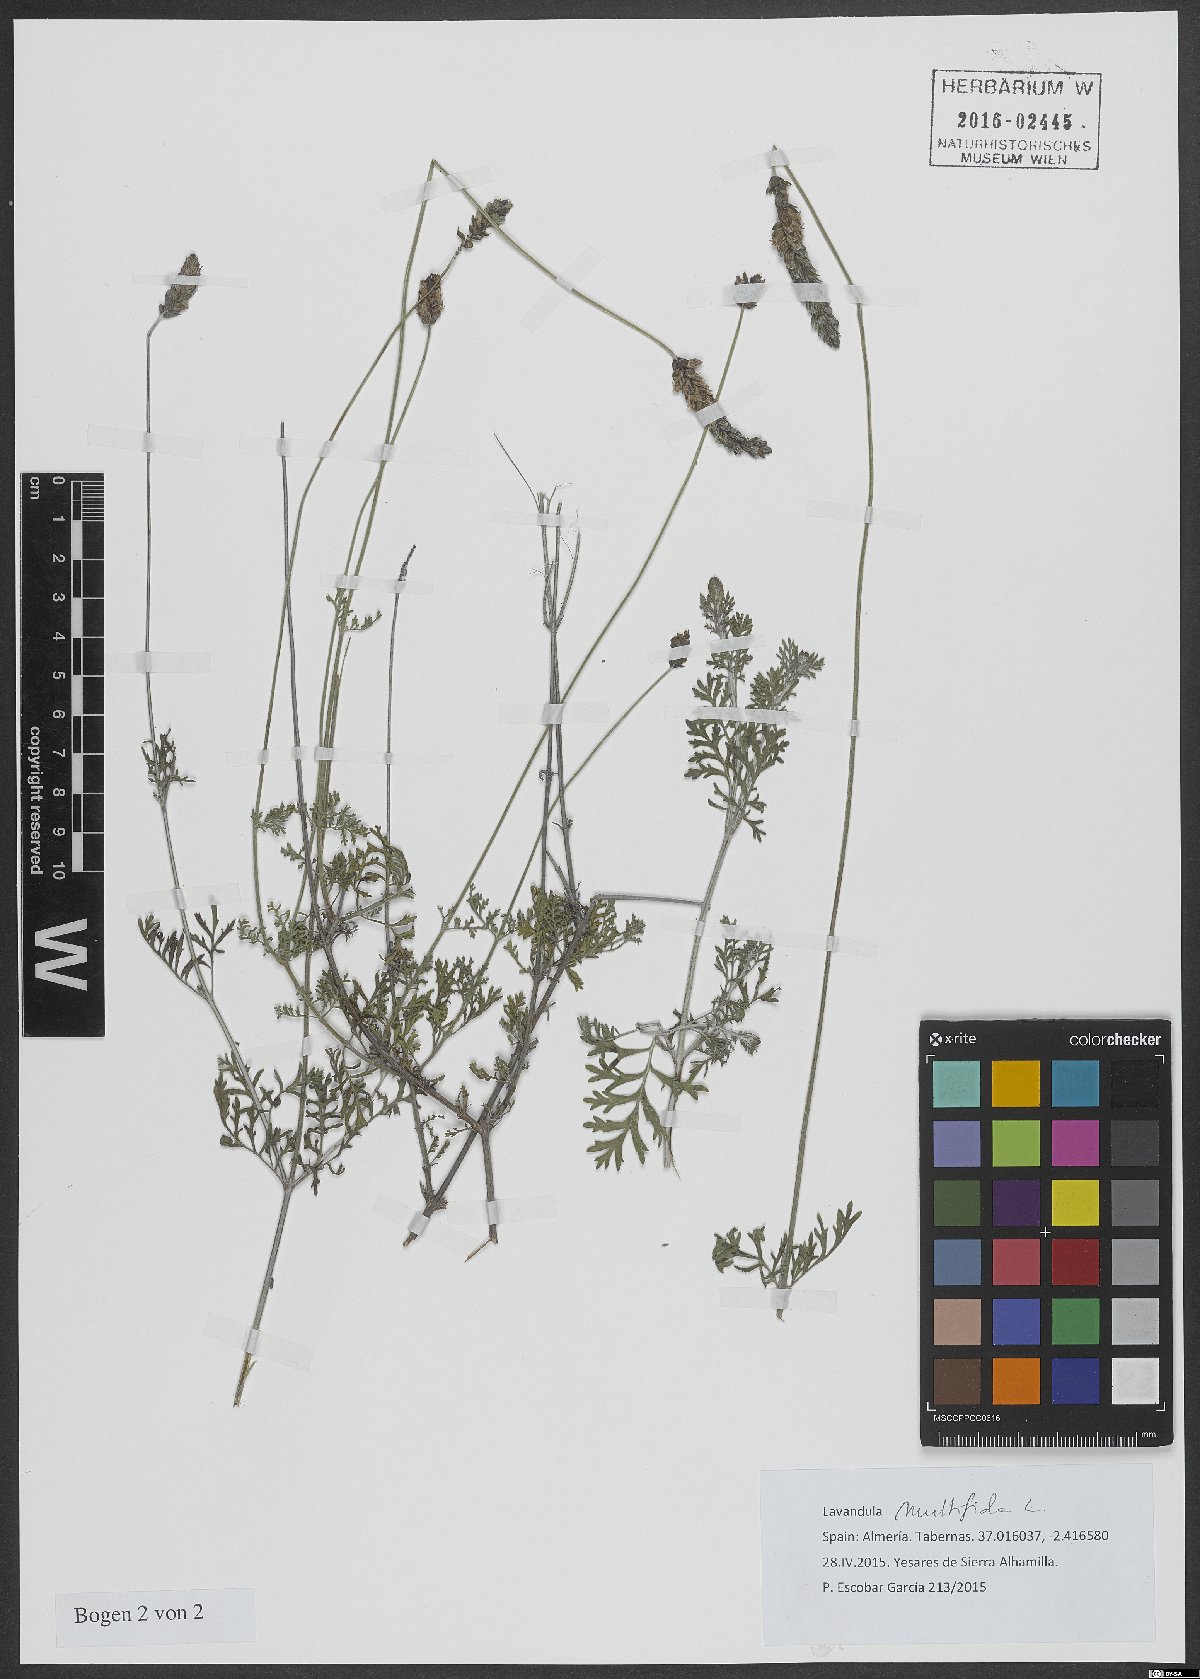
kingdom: Plantae
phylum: Tracheophyta
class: Magnoliopsida
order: Lamiales
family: Lamiaceae
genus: Lavandula
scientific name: Lavandula multifida
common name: Fern-leaf lavender
